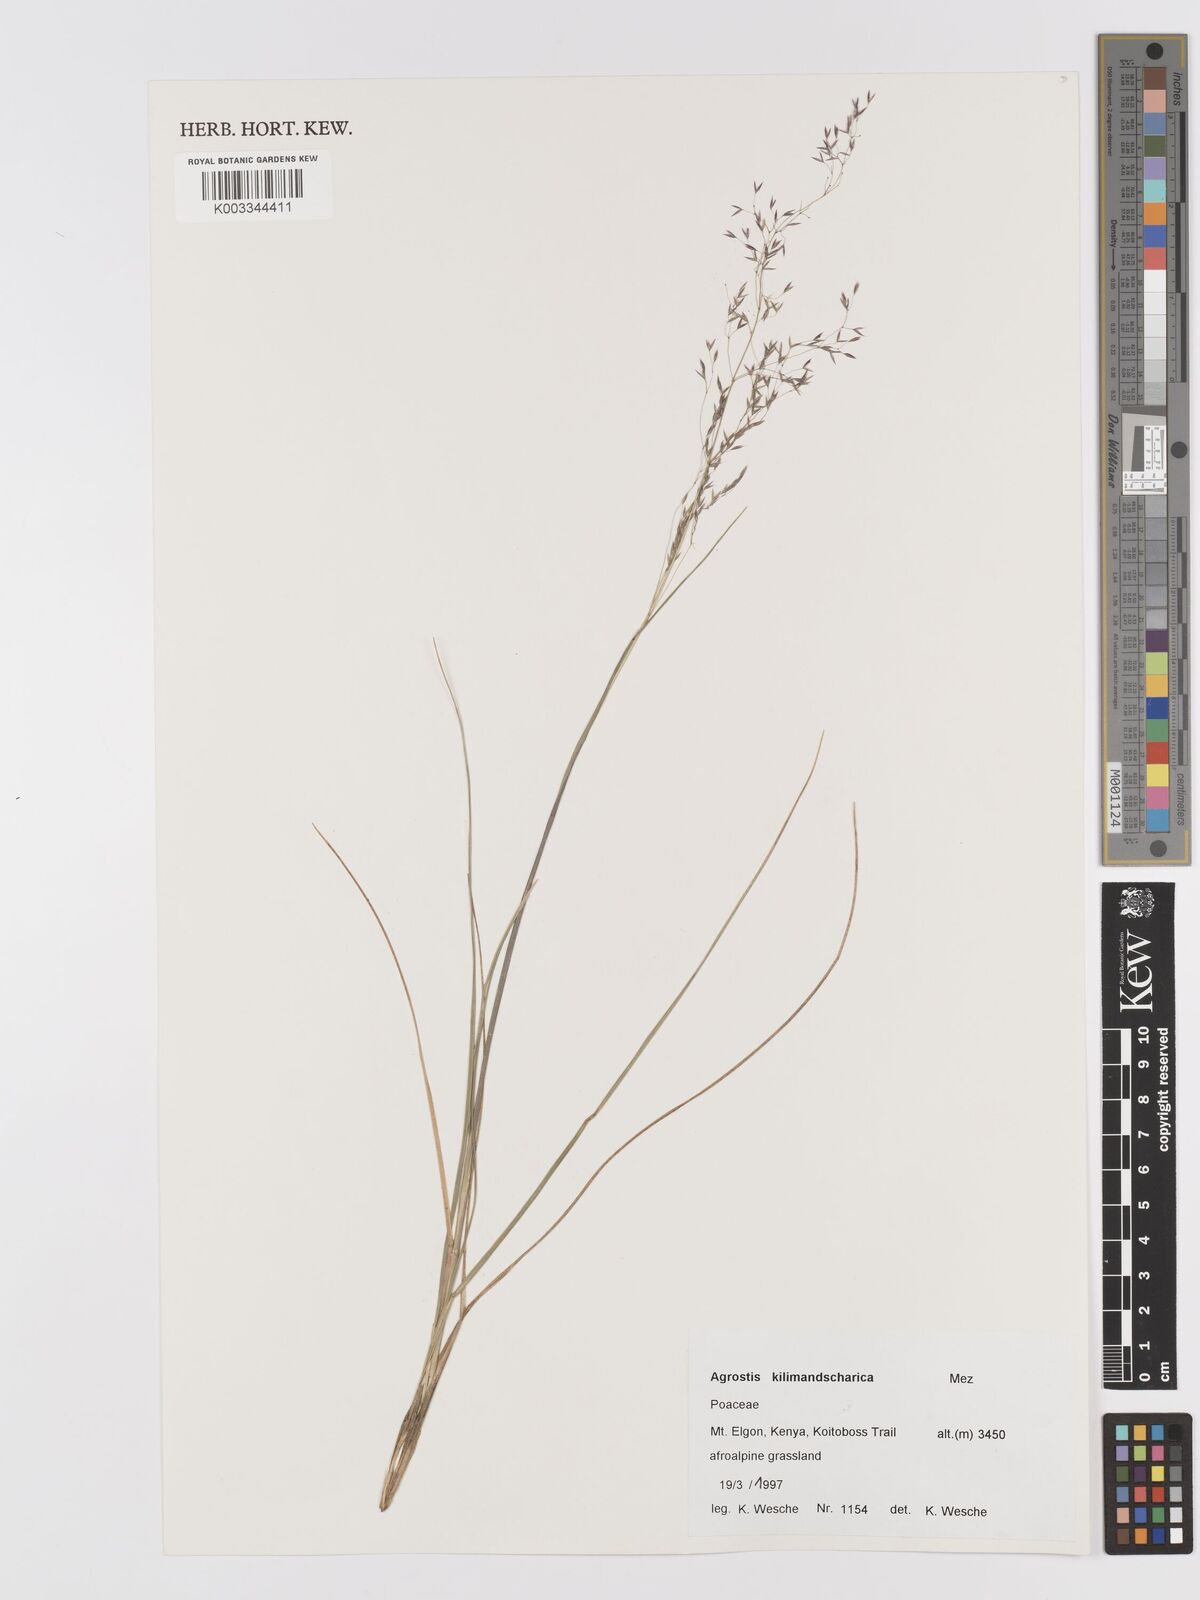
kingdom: Plantae
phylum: Tracheophyta
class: Liliopsida
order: Poales
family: Poaceae
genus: Agrostis
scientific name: Agrostis kilimandscharica
